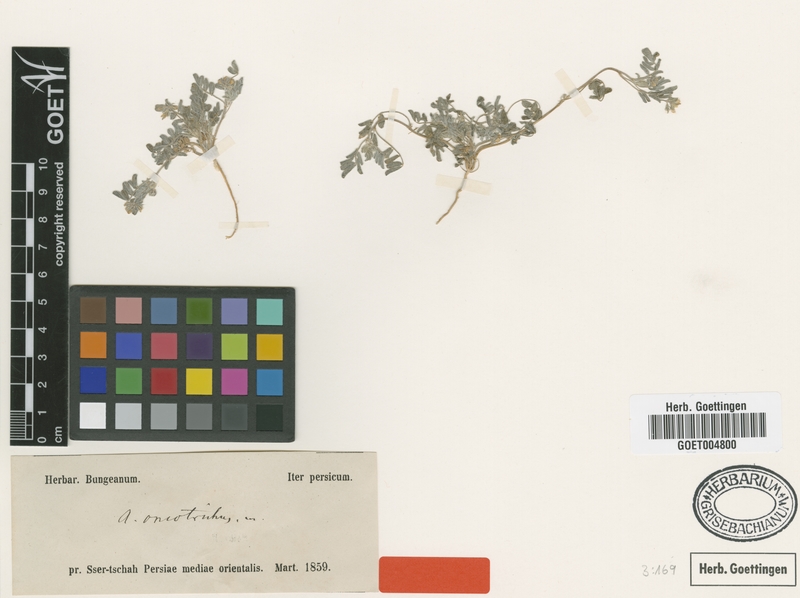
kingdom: Plantae
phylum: Tracheophyta
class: Magnoliopsida
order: Fabales
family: Fabaceae
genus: Astragalus
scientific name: Astragalus oncotrichus
